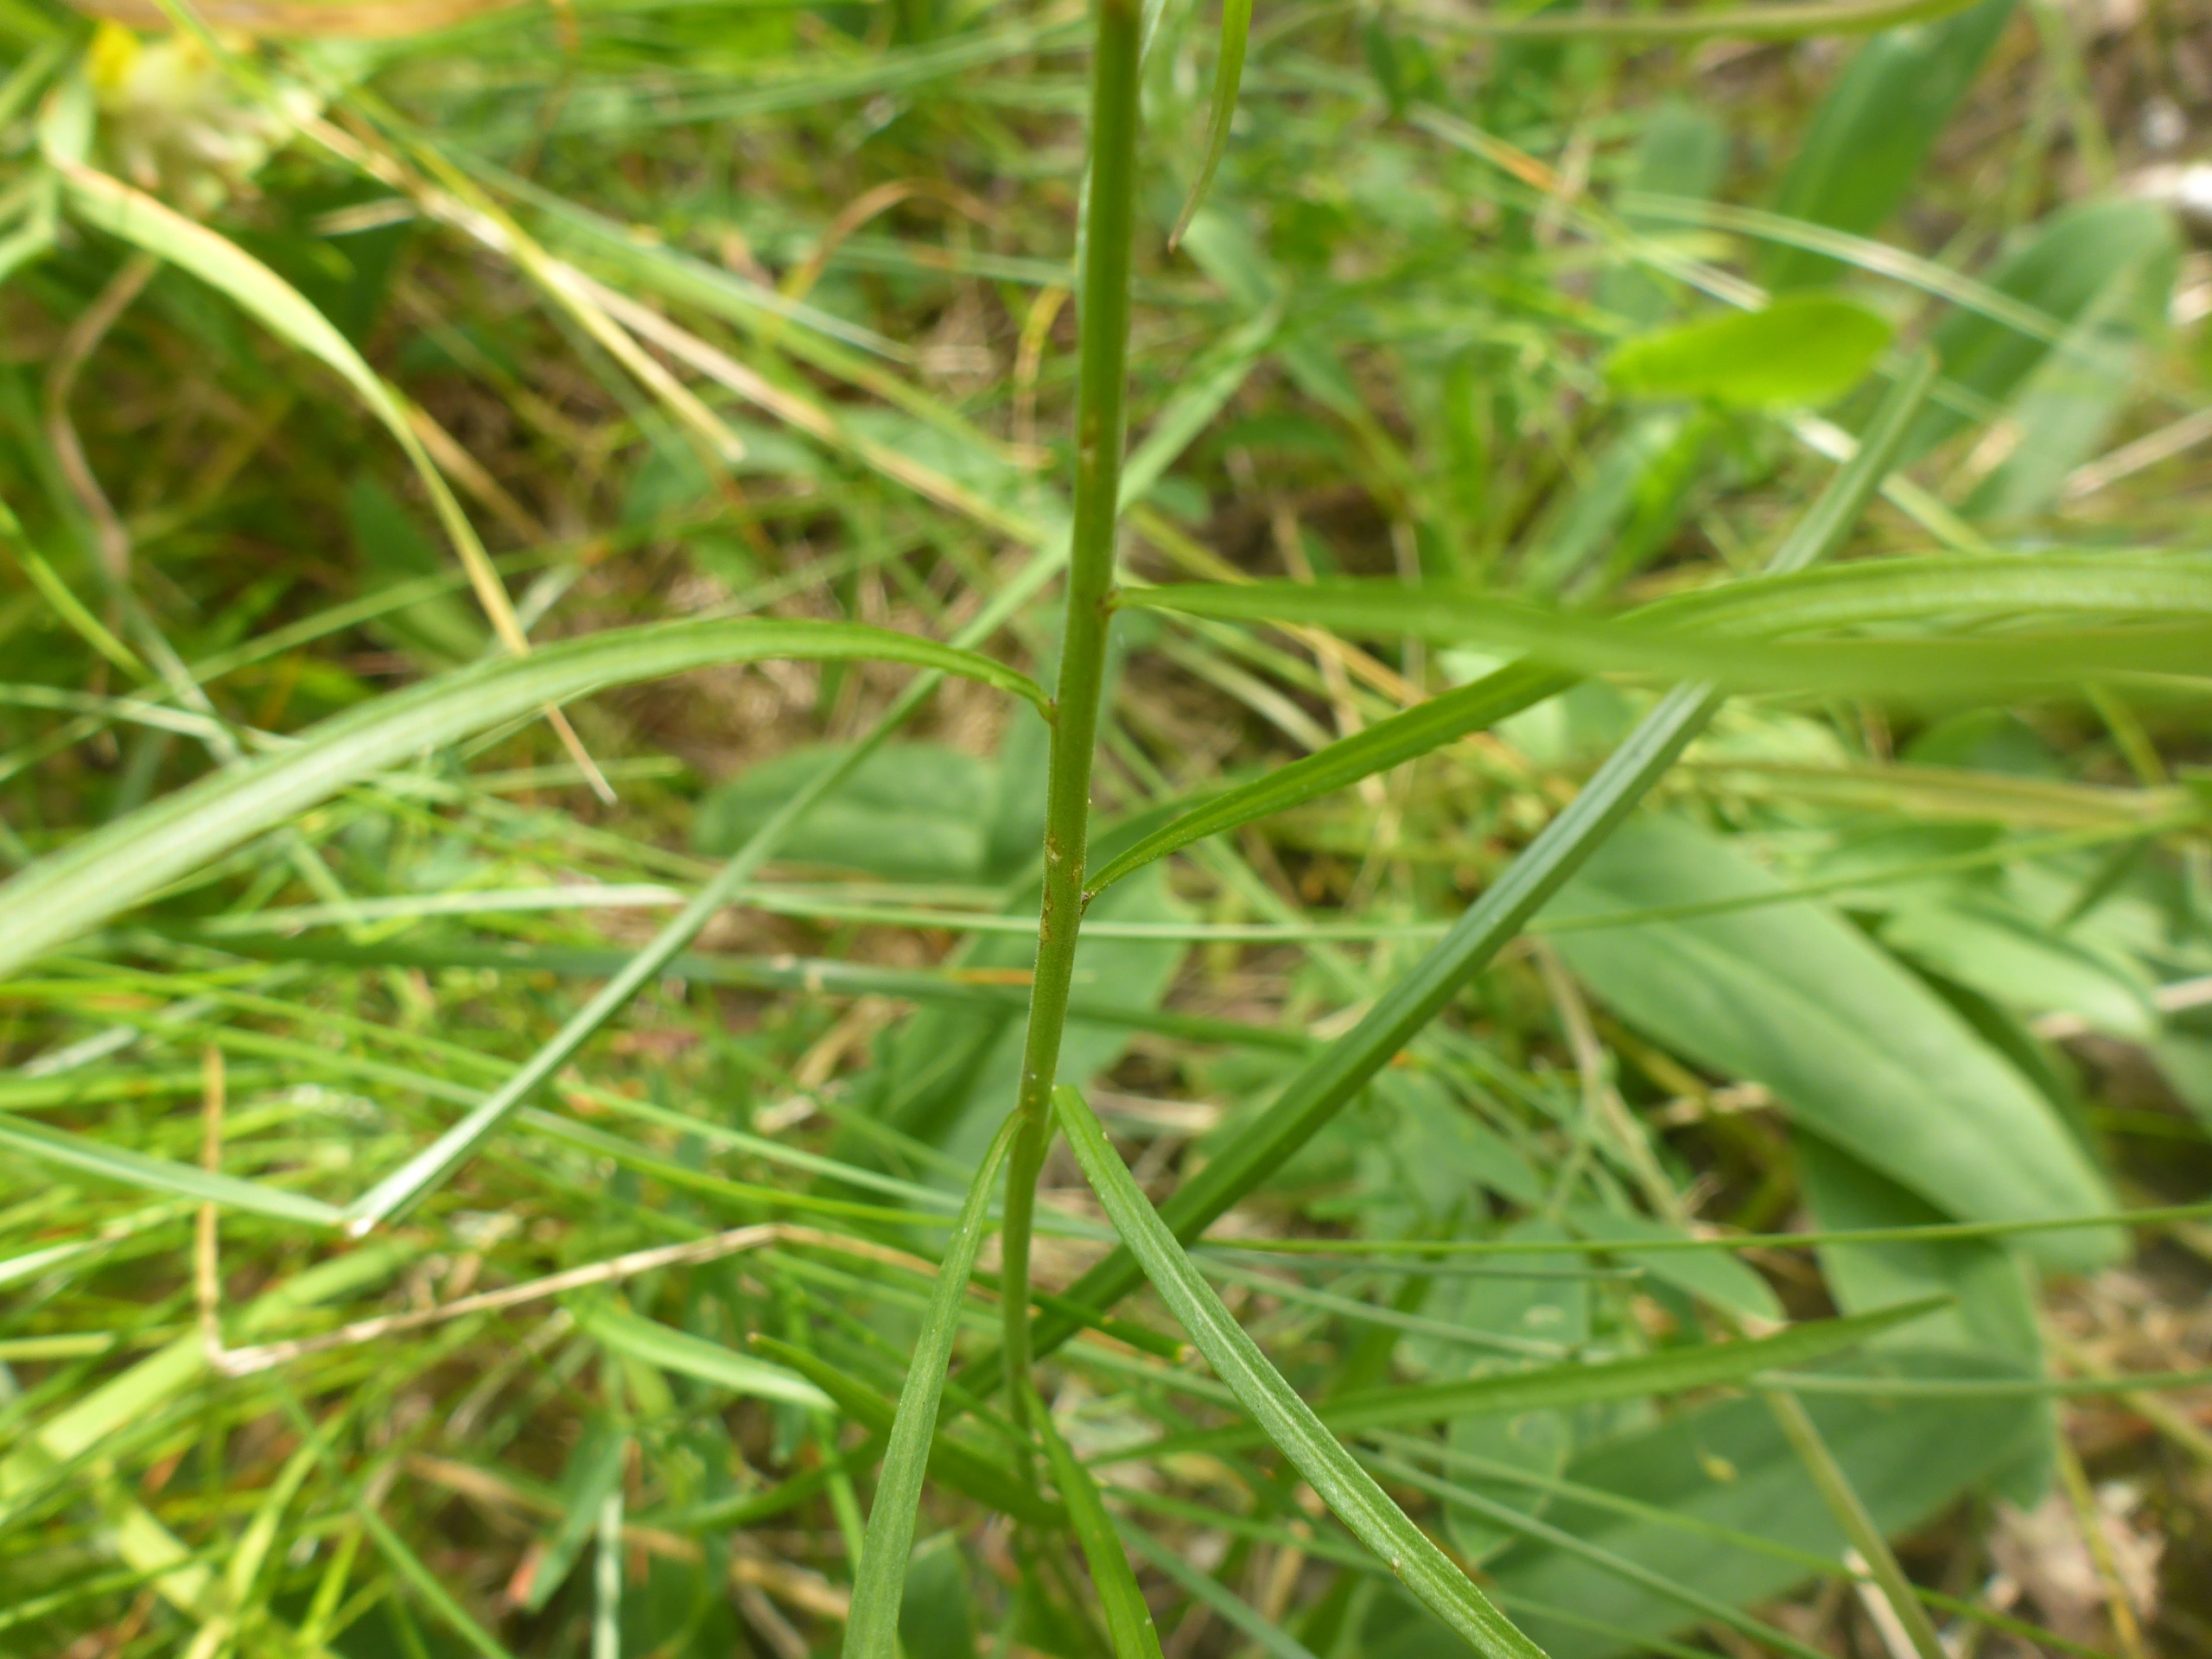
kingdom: Plantae
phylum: Tracheophyta
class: Magnoliopsida
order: Asterales
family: Campanulaceae
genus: Campanula
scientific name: Campanula rotundifolia
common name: Liden klokke
